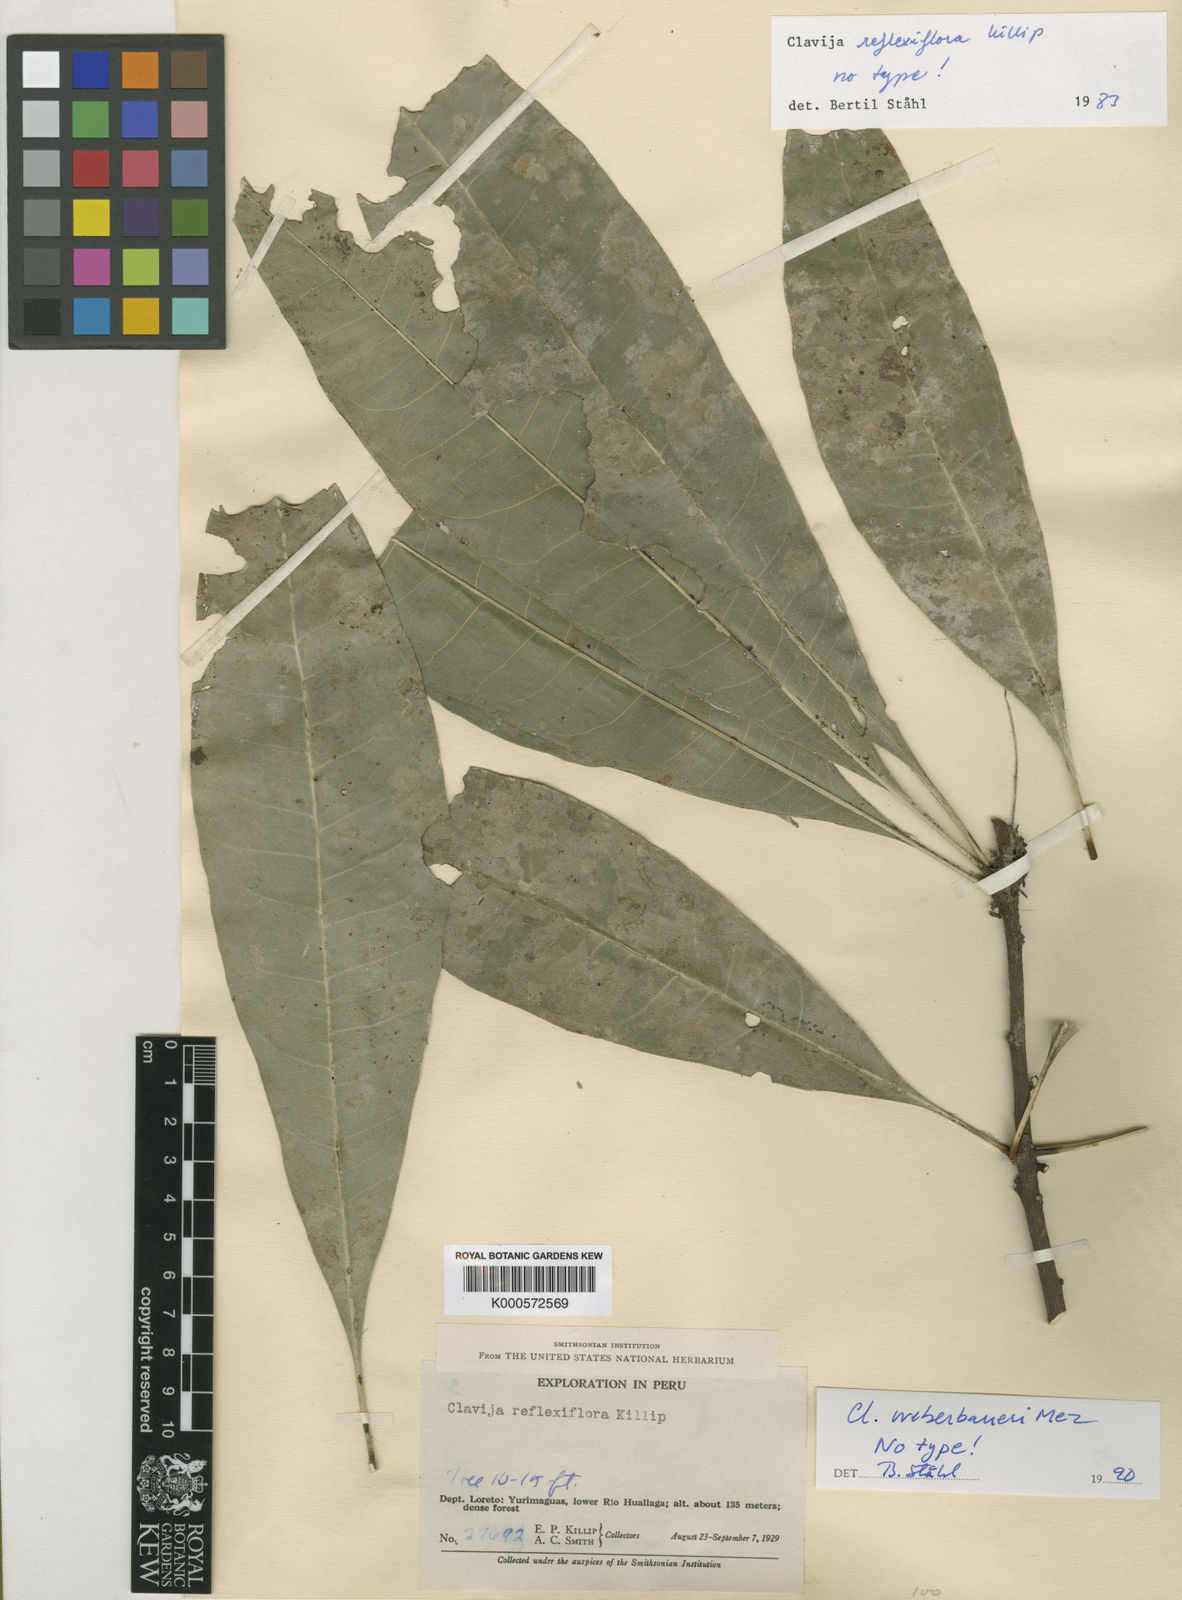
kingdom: Plantae
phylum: Tracheophyta
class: Magnoliopsida
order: Ericales
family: Primulaceae
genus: Clavija
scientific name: Clavija weberbaueri
